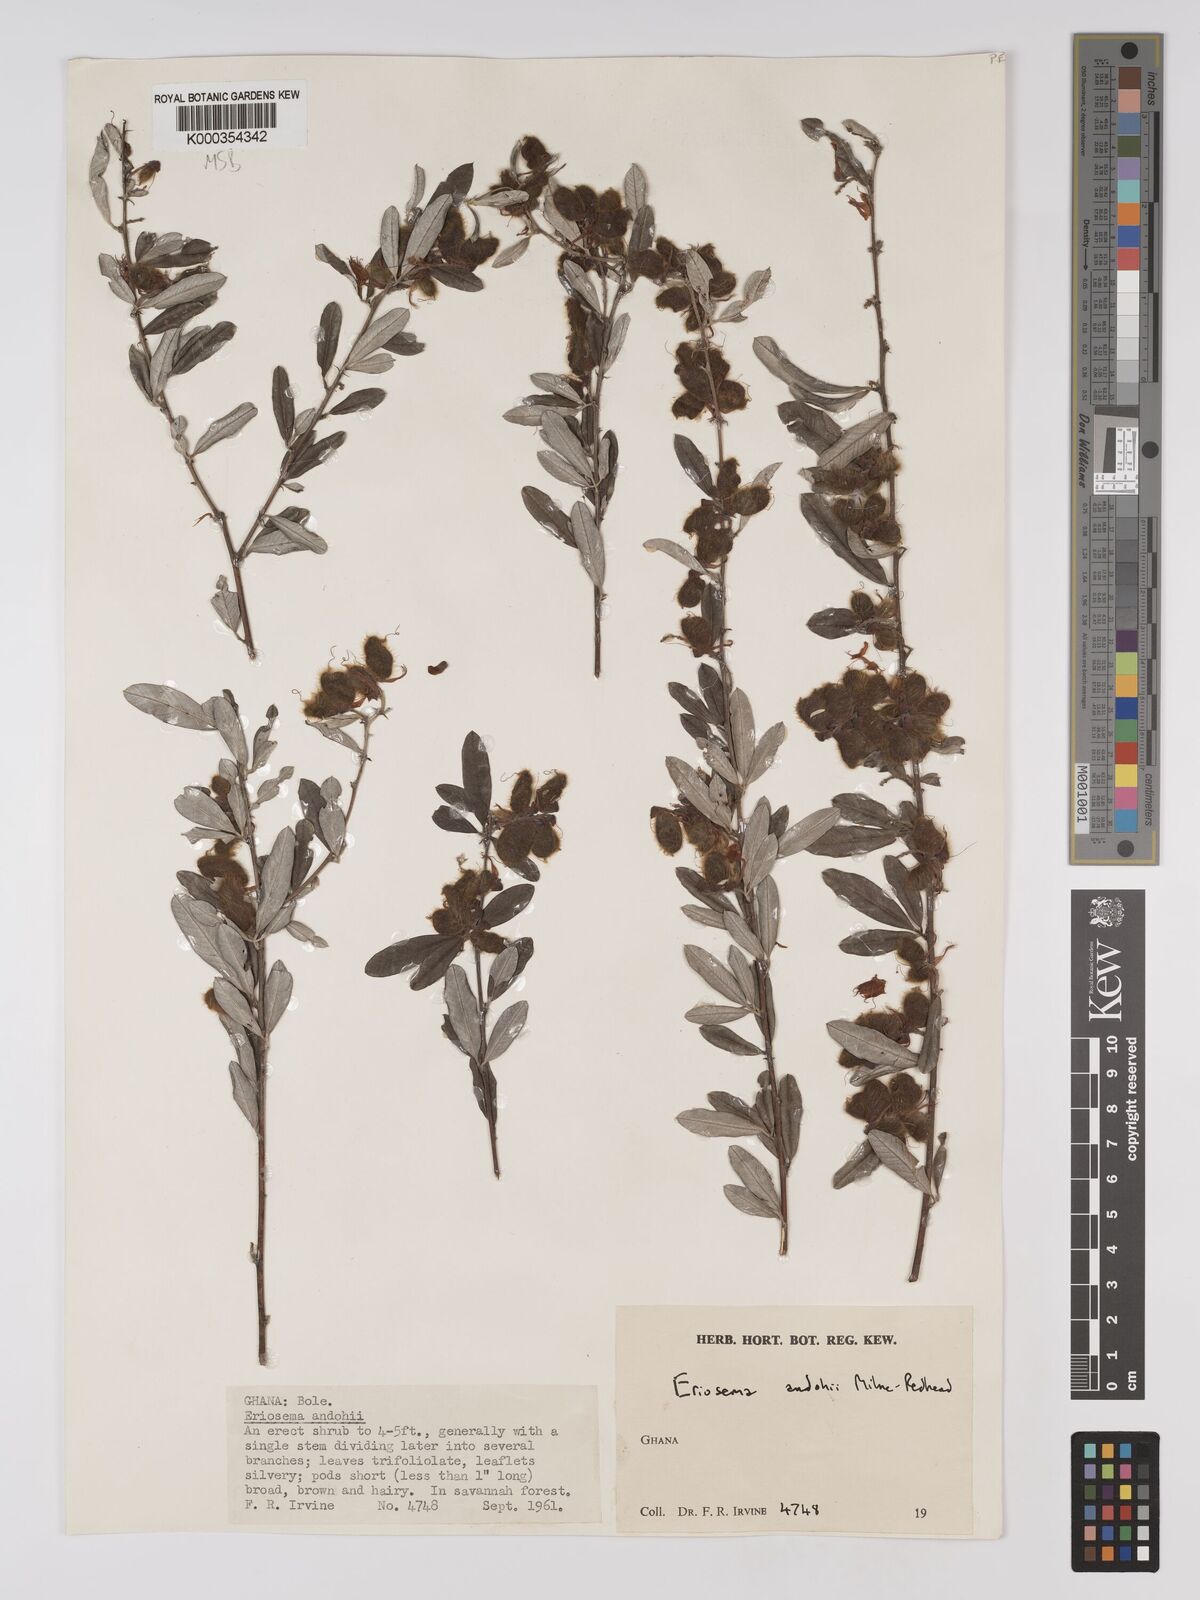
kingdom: Plantae
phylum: Tracheophyta
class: Magnoliopsida
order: Fabales
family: Fabaceae
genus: Eriosema
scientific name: Eriosema andohii
